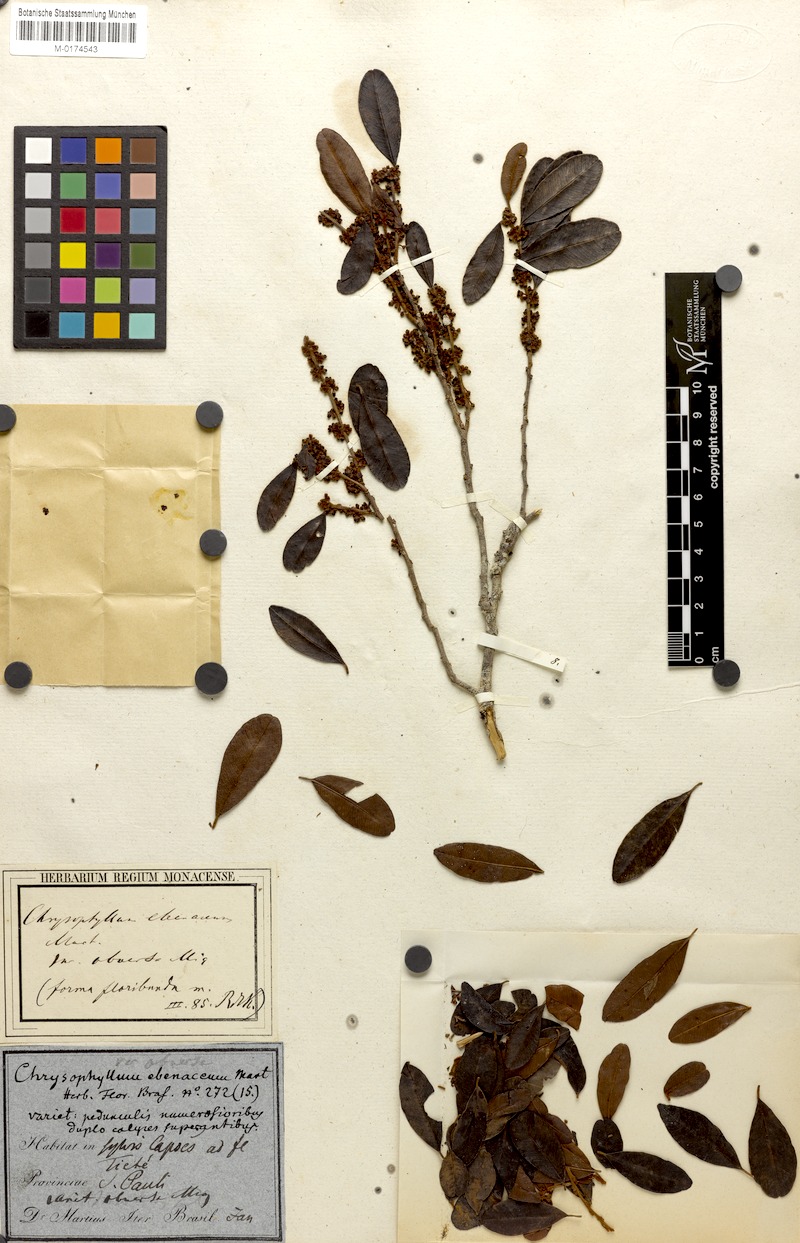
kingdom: Plantae
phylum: Tracheophyta
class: Magnoliopsida
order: Ericales
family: Sapotaceae
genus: Chrysophyllum
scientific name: Chrysophyllum marginatum
